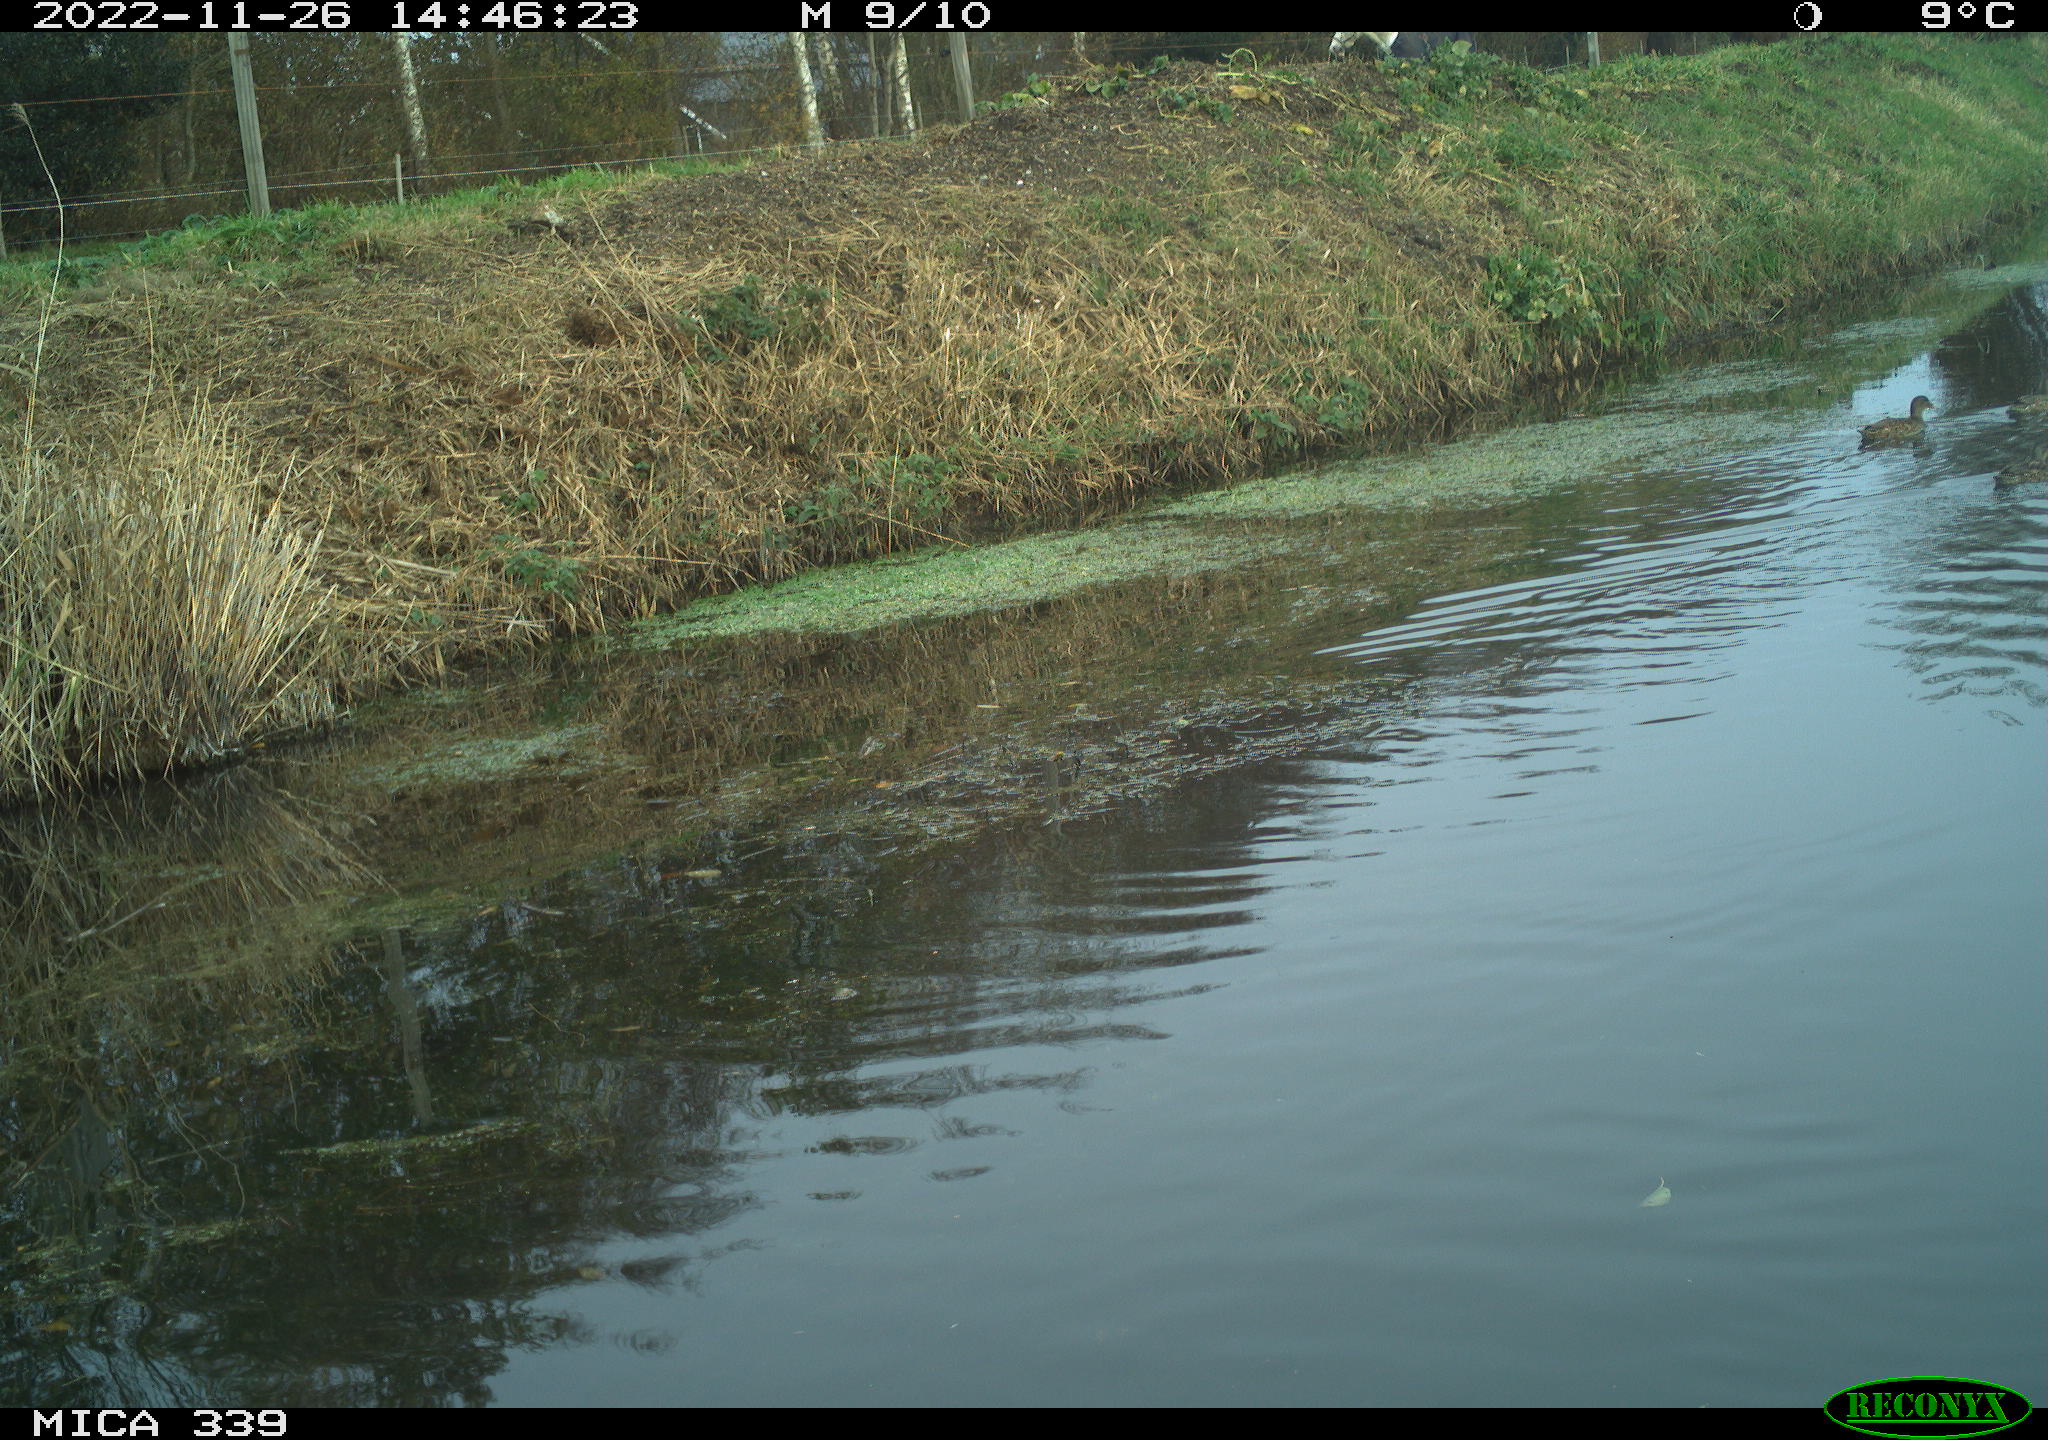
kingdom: Animalia
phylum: Chordata
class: Aves
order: Anseriformes
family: Anatidae
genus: Anas
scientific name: Anas platyrhynchos
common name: Mallard
